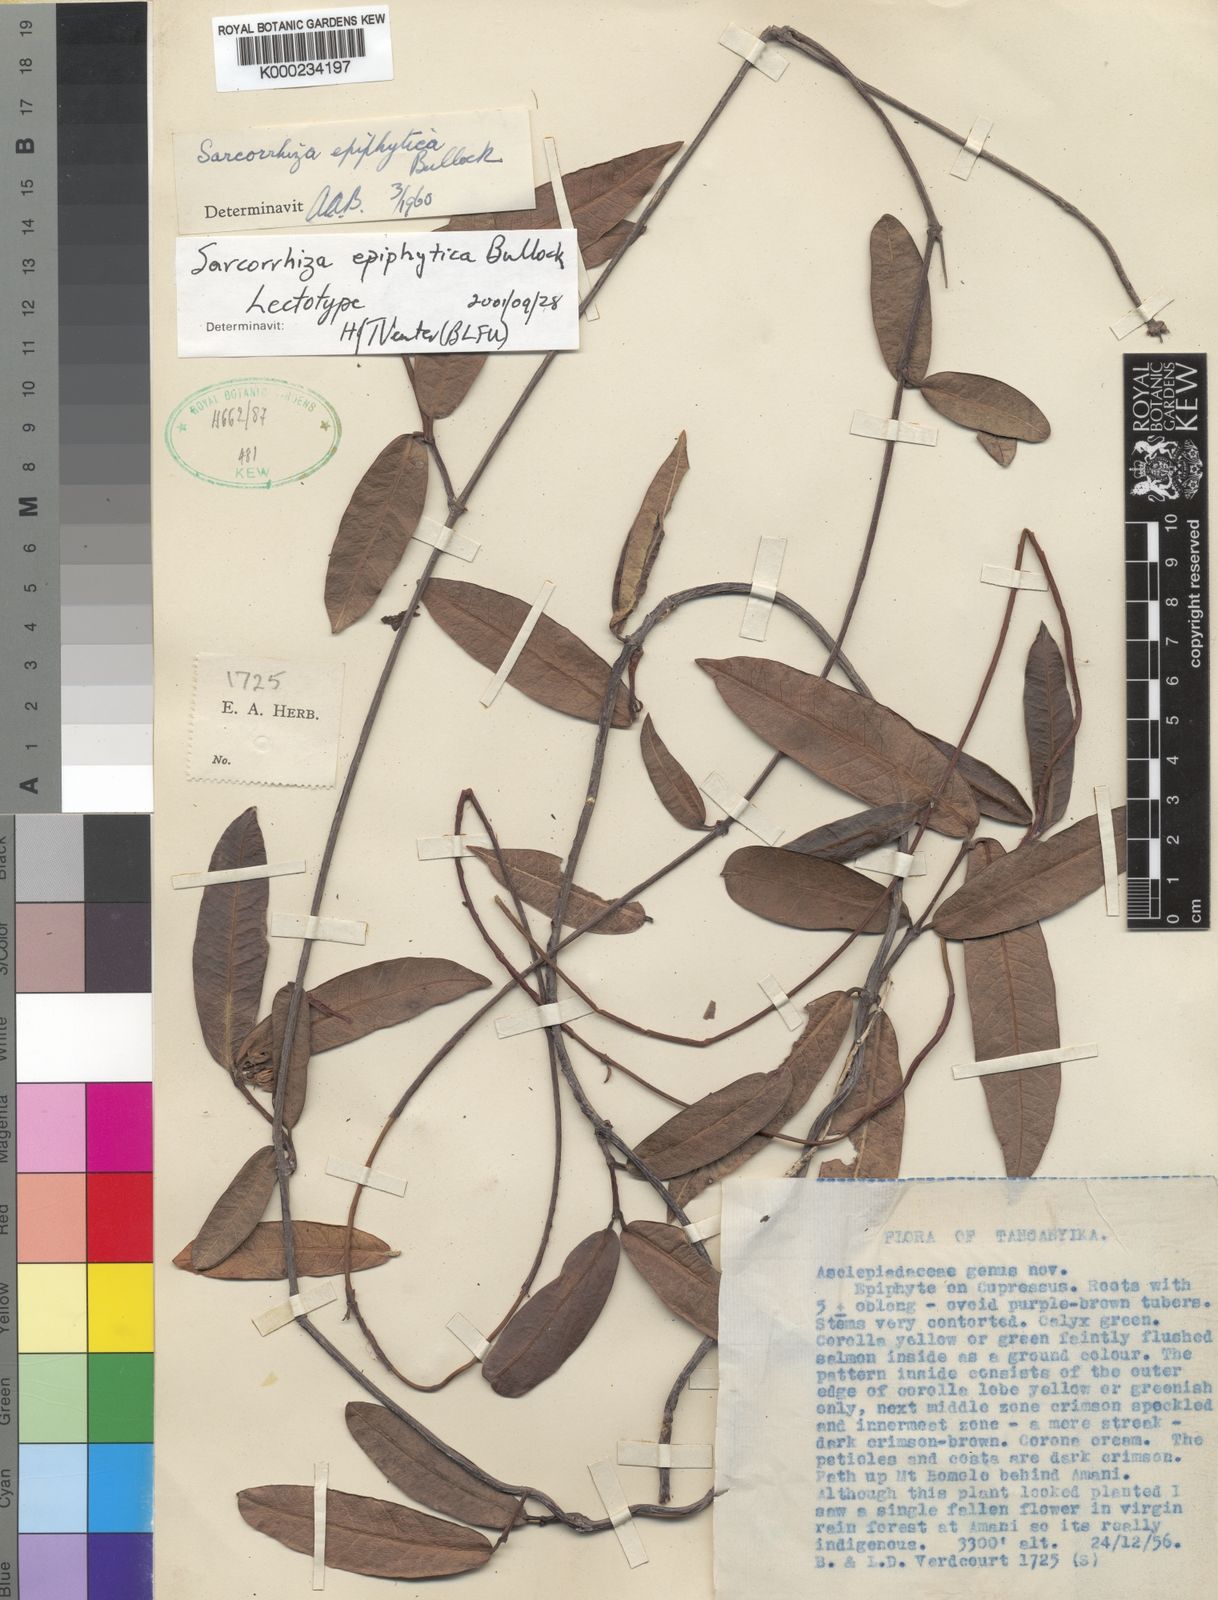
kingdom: Plantae
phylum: Tracheophyta
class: Magnoliopsida
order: Gentianales
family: Apocynaceae
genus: Sarcorrhiza
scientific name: Sarcorrhiza epiphytica
